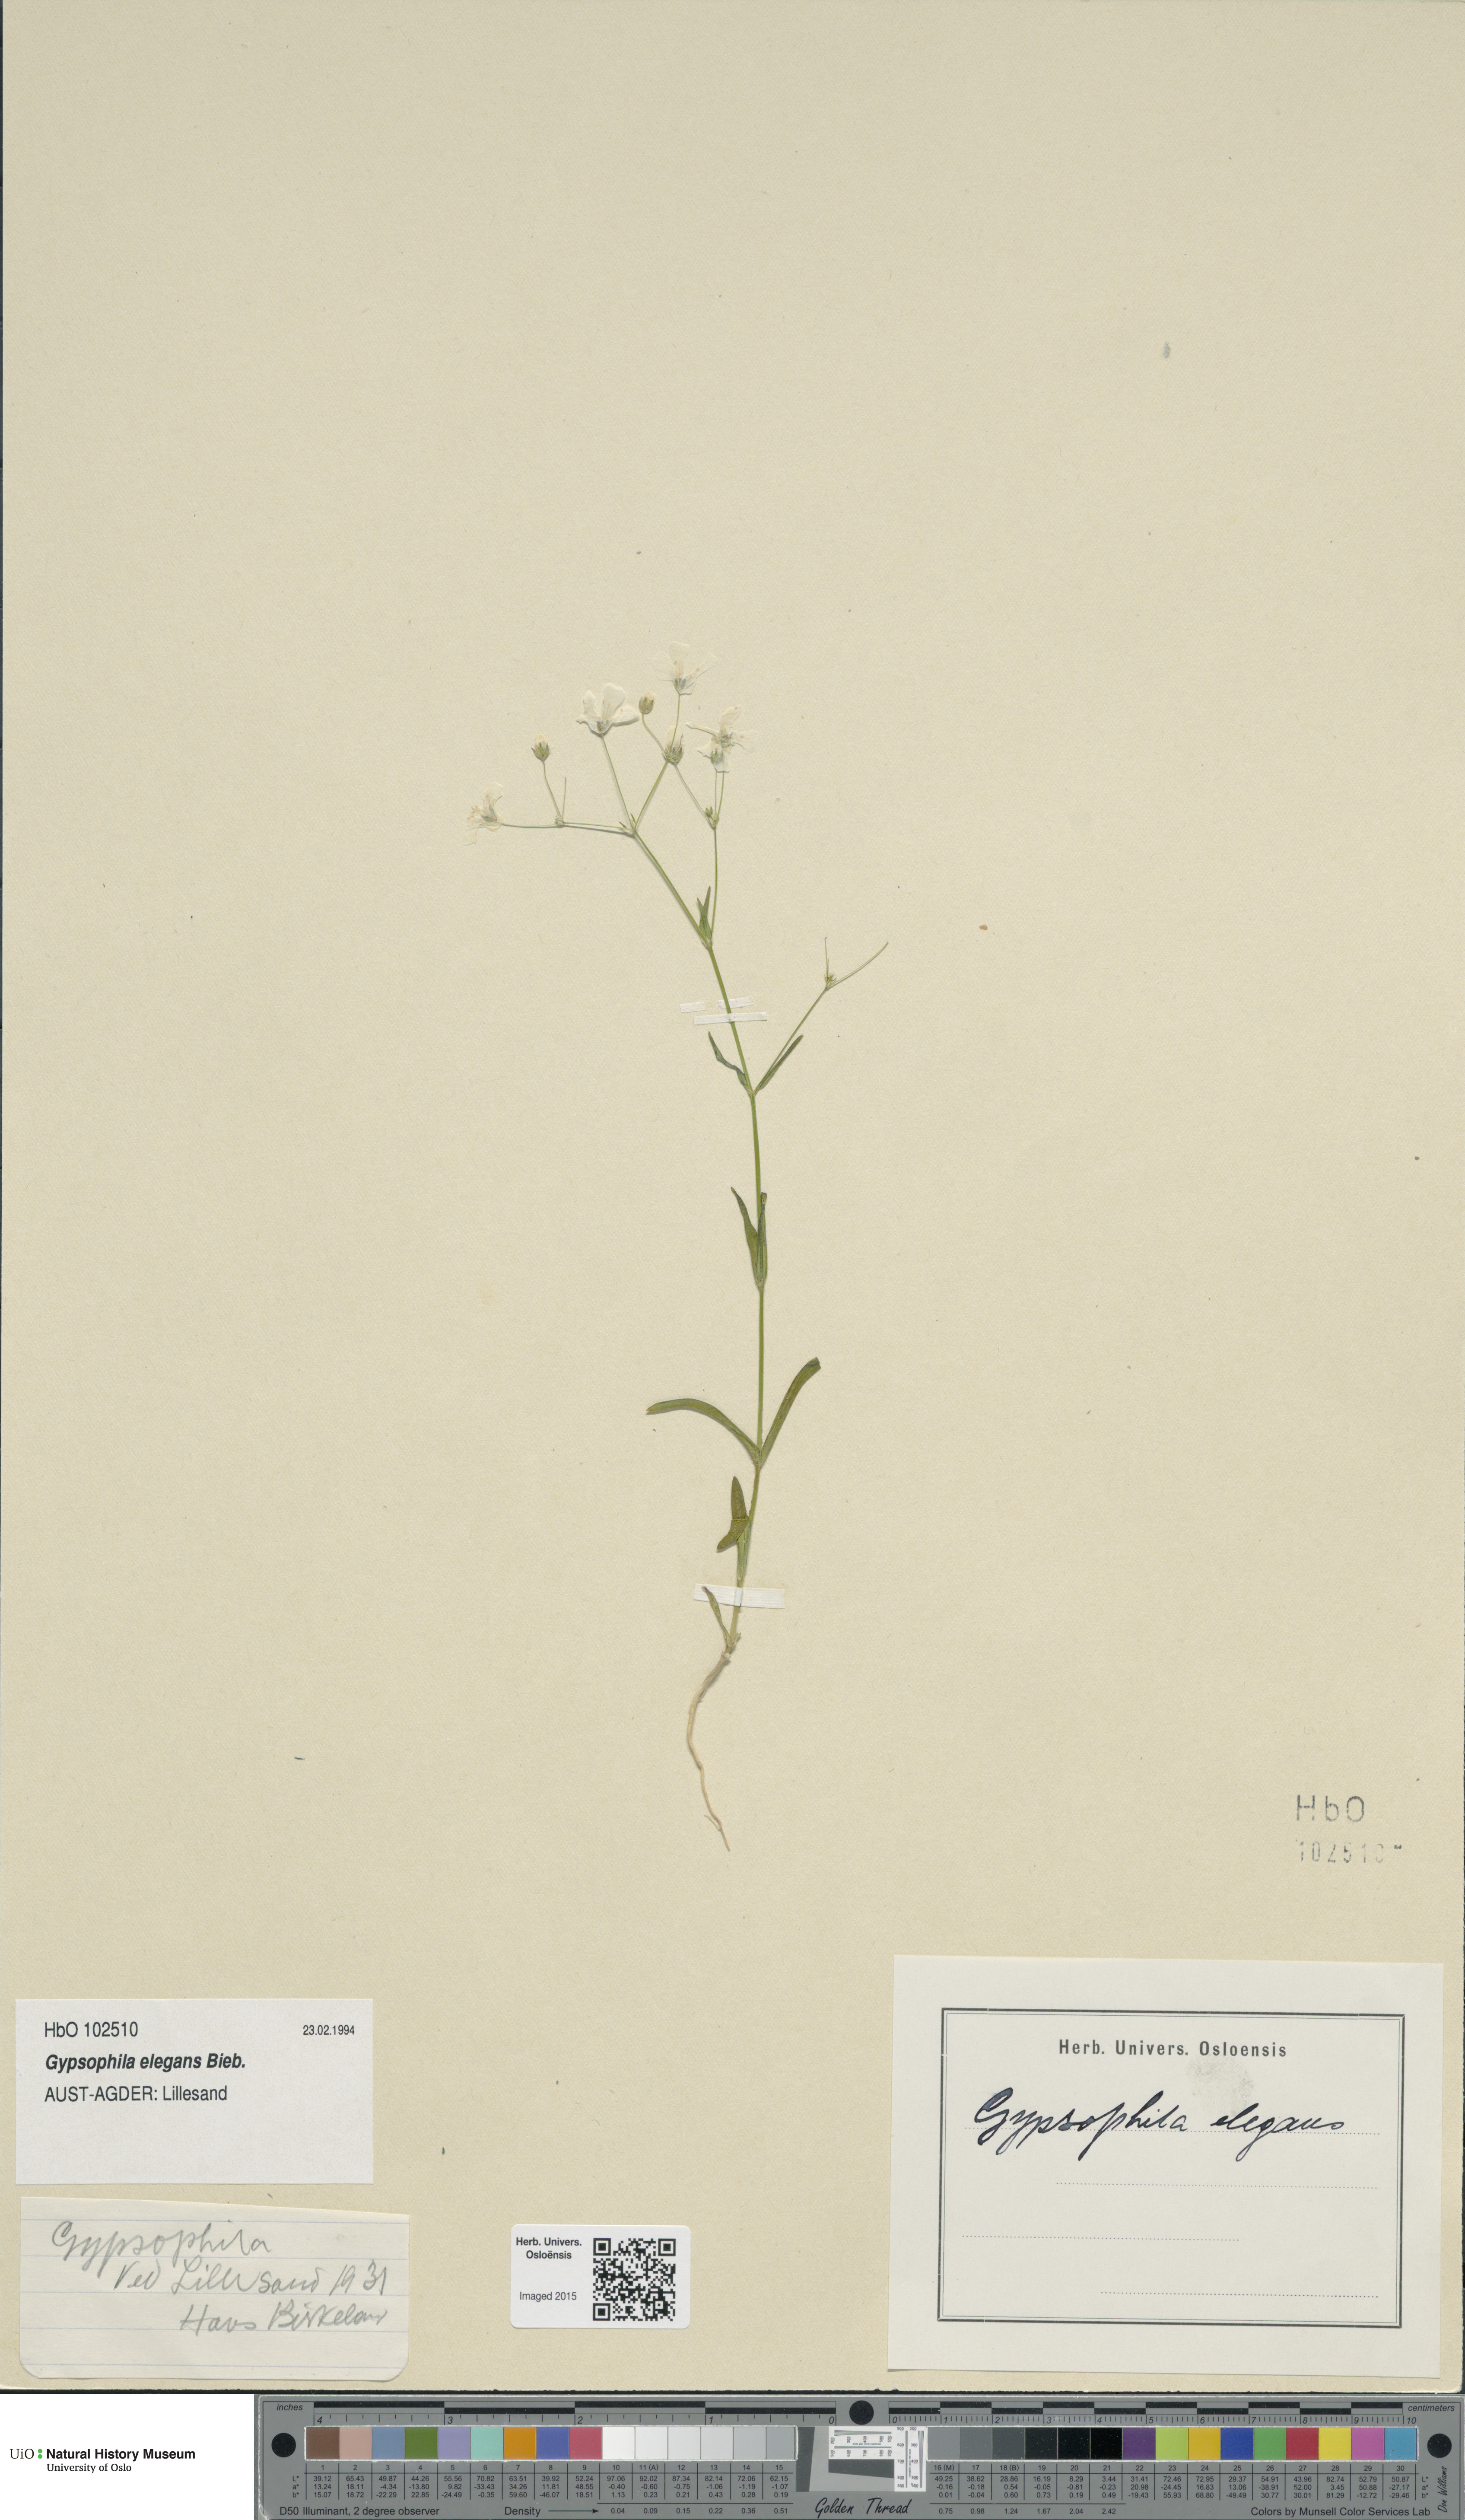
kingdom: Plantae
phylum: Tracheophyta
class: Magnoliopsida
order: Caryophyllales
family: Caryophyllaceae
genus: Gypsophila
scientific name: Gypsophila elegans
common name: Showy baby's-breath
